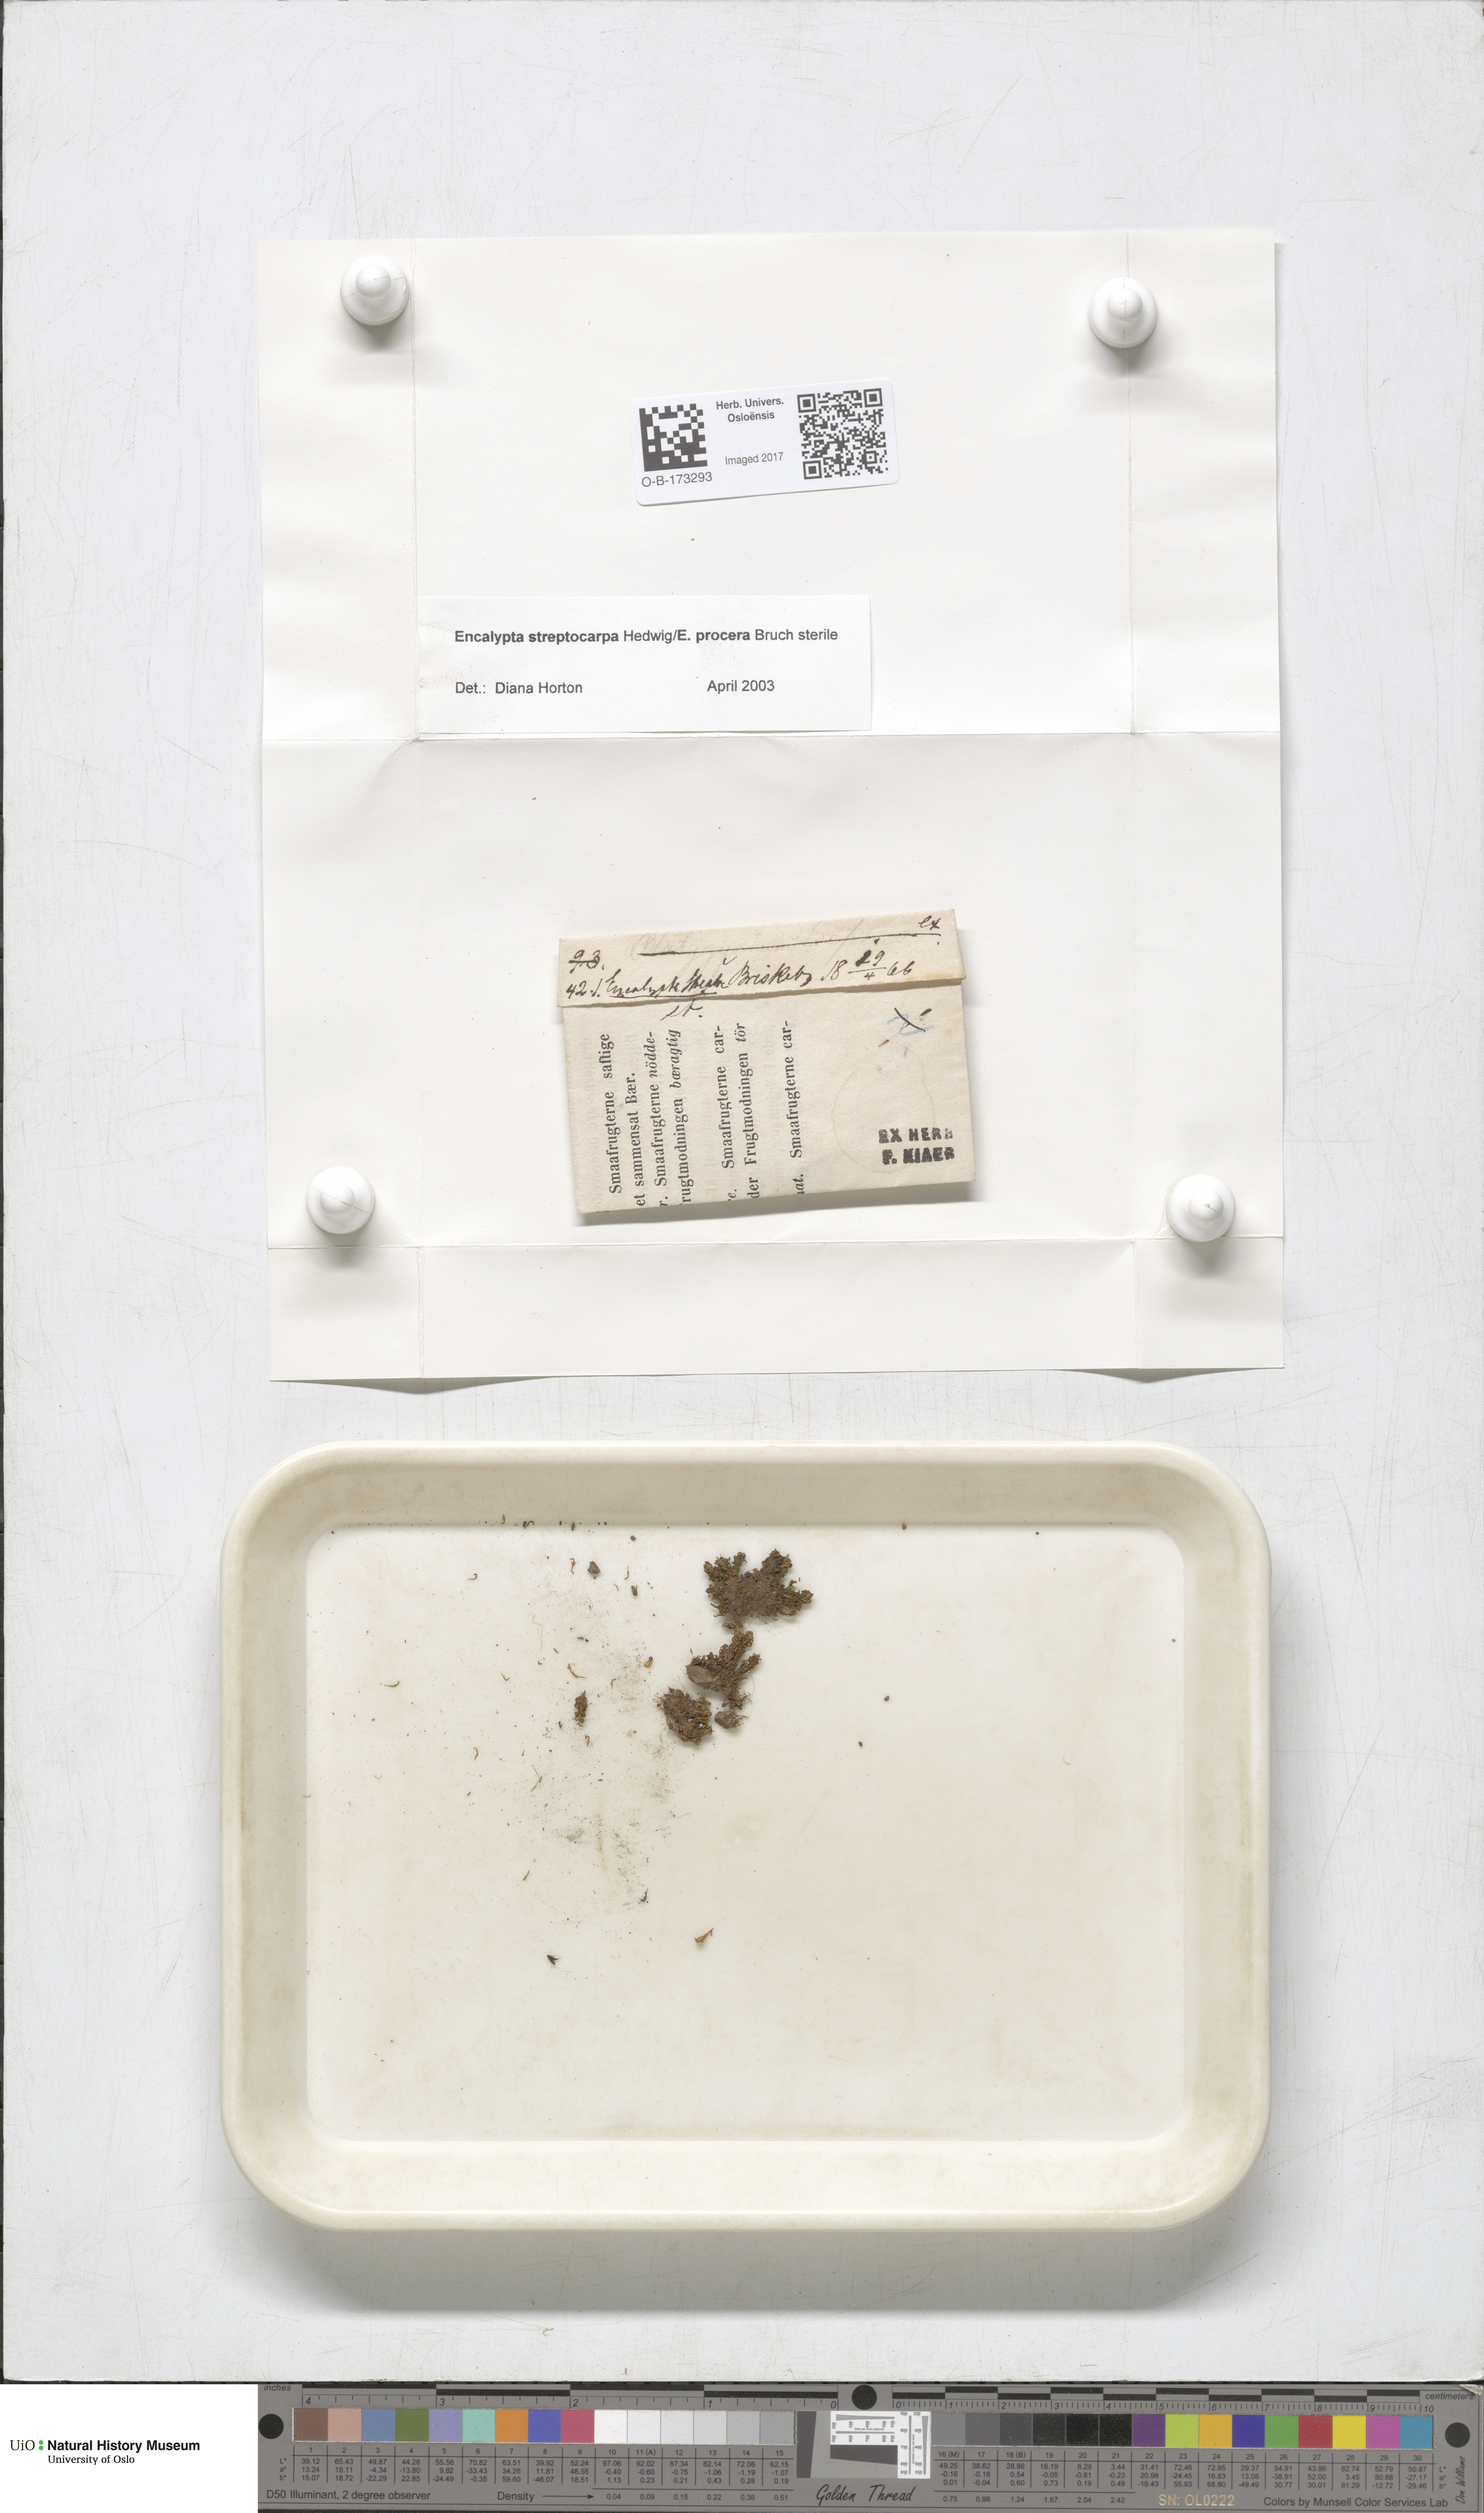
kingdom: Plantae
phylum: Bryophyta
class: Bryopsida
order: Encalyptales
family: Encalyptaceae
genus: Encalypta
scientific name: Encalypta
